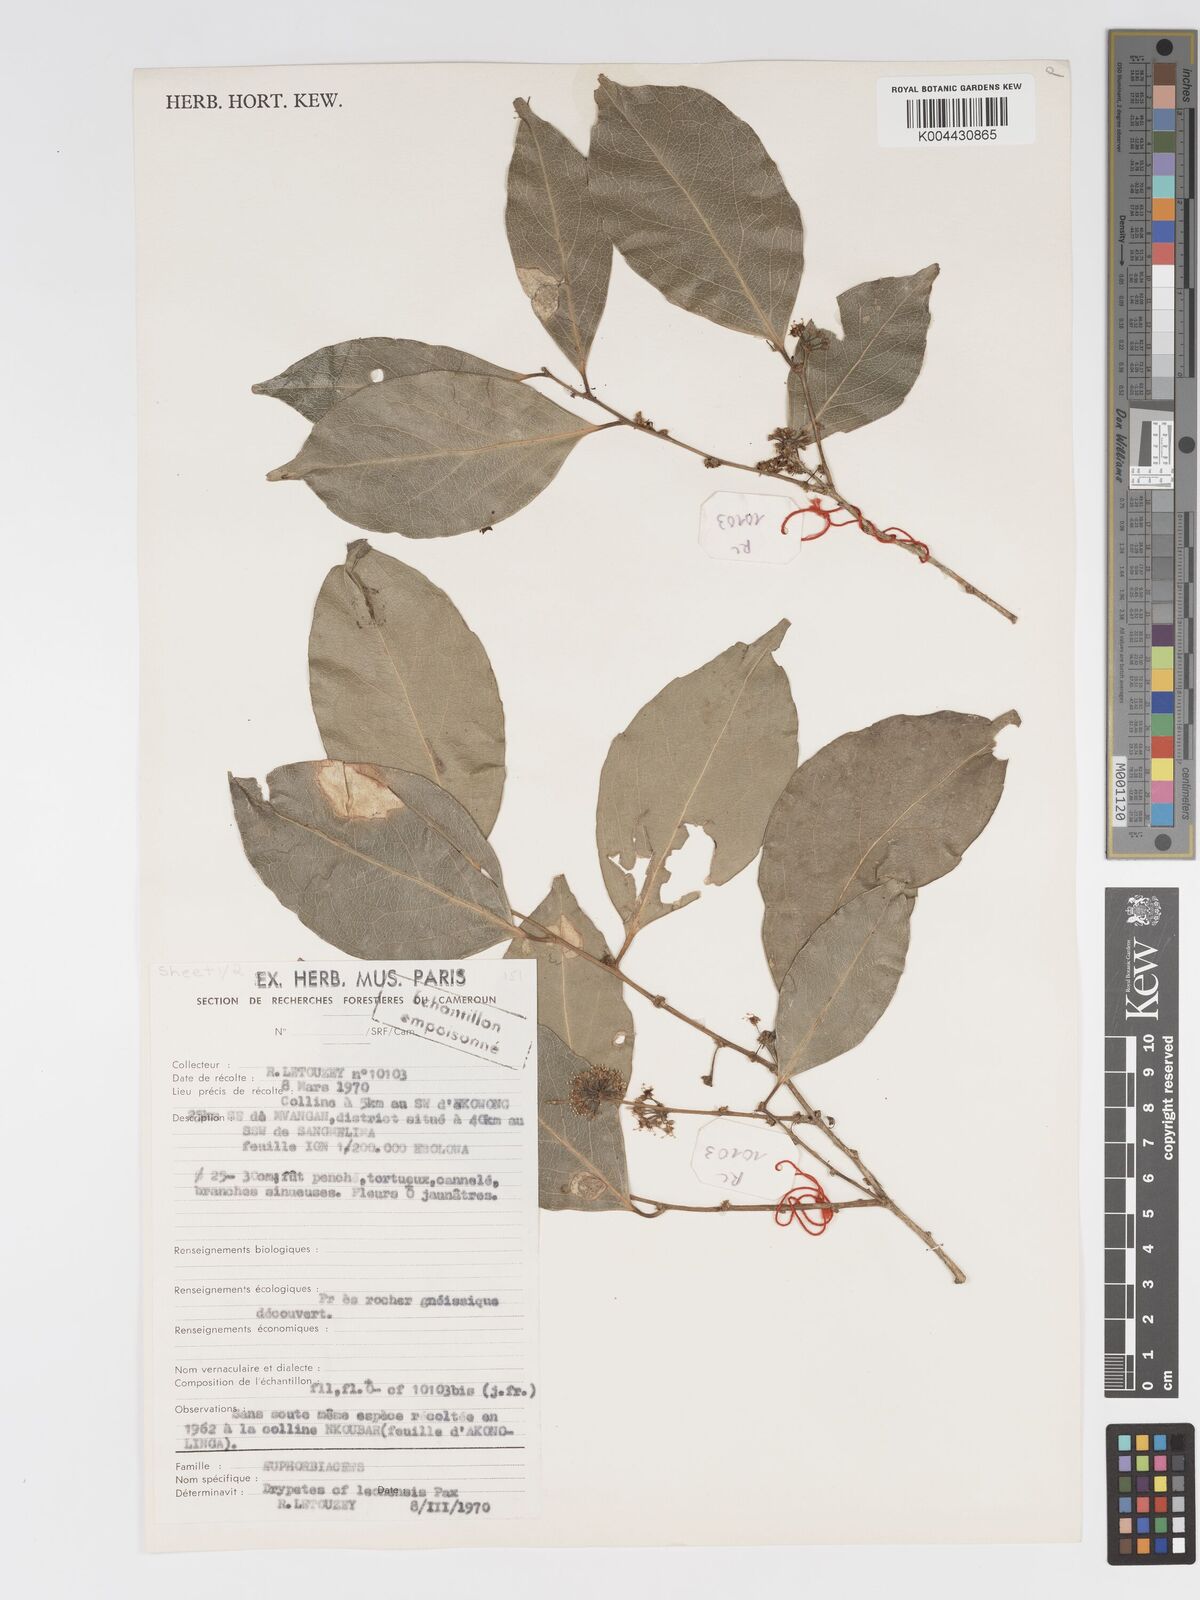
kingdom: Plantae
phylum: Tracheophyta
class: Magnoliopsida
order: Malpighiales
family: Putranjivaceae
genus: Drypetes
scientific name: Drypetes
